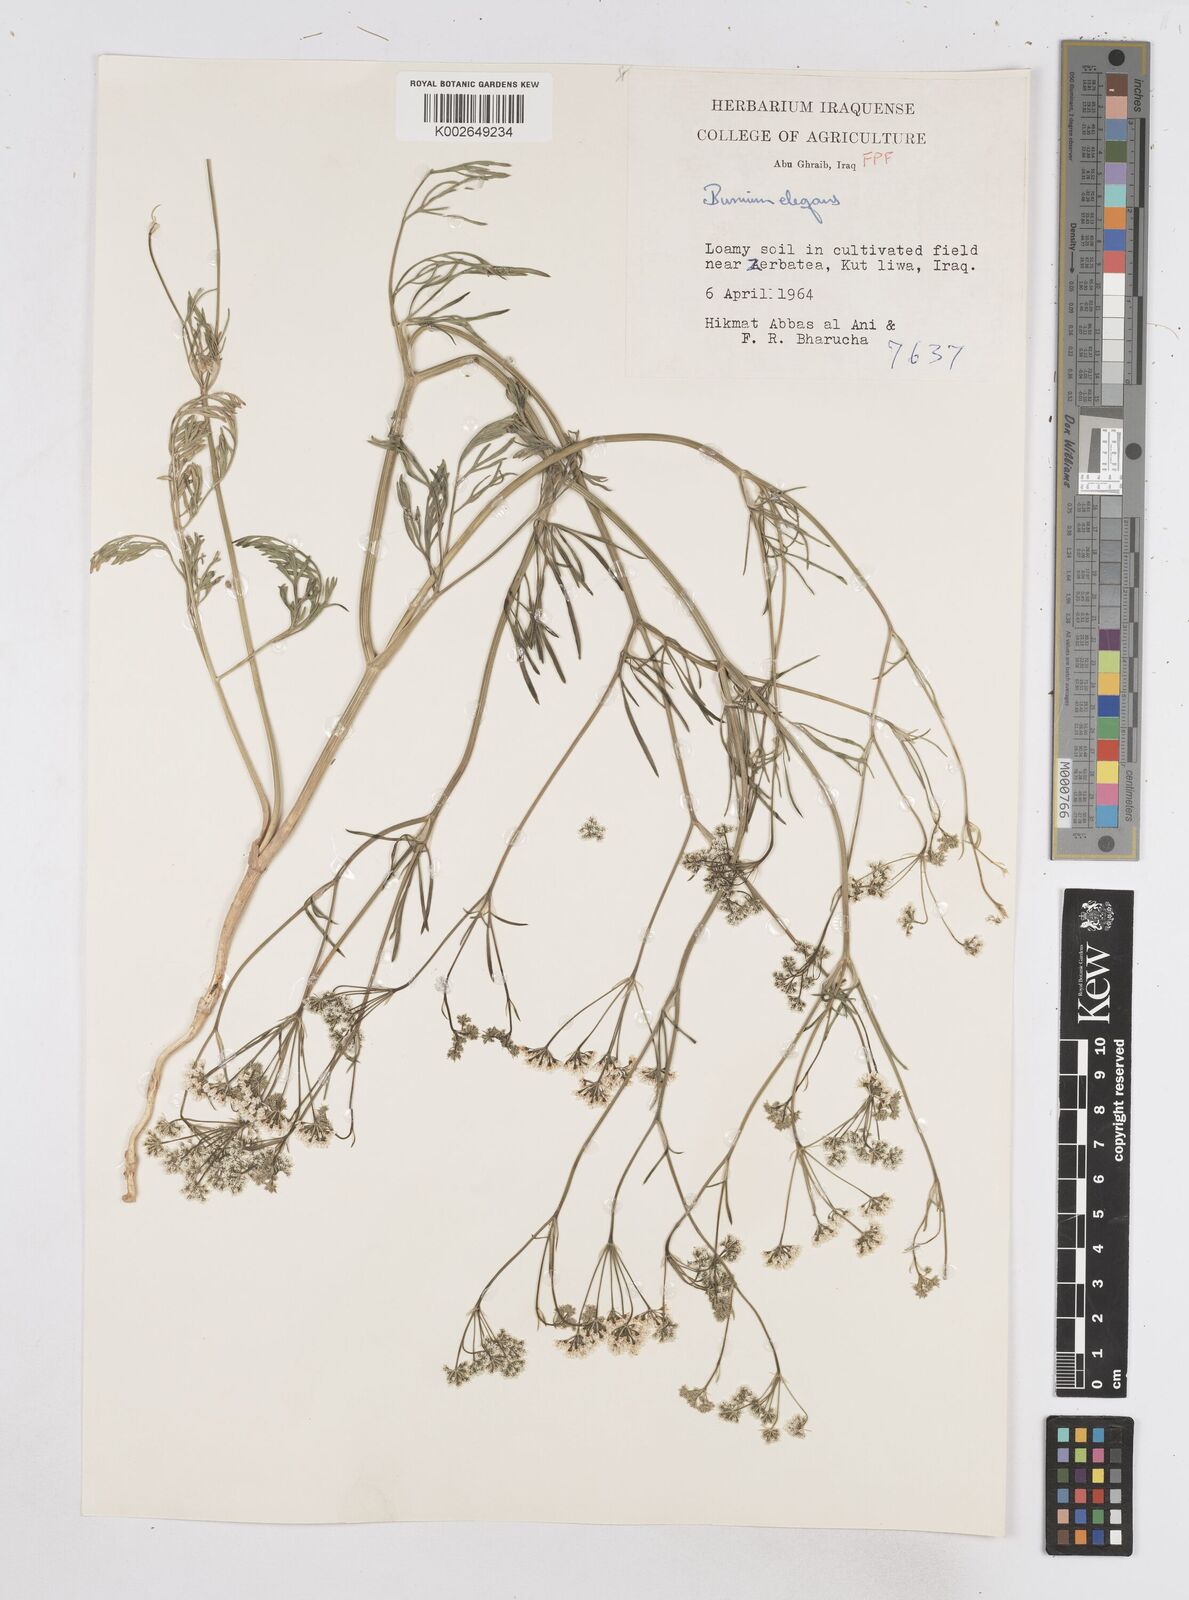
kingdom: Plantae
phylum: Tracheophyta
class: Magnoliopsida
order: Apiales
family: Apiaceae
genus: Bunium
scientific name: Bunium paucifolium
